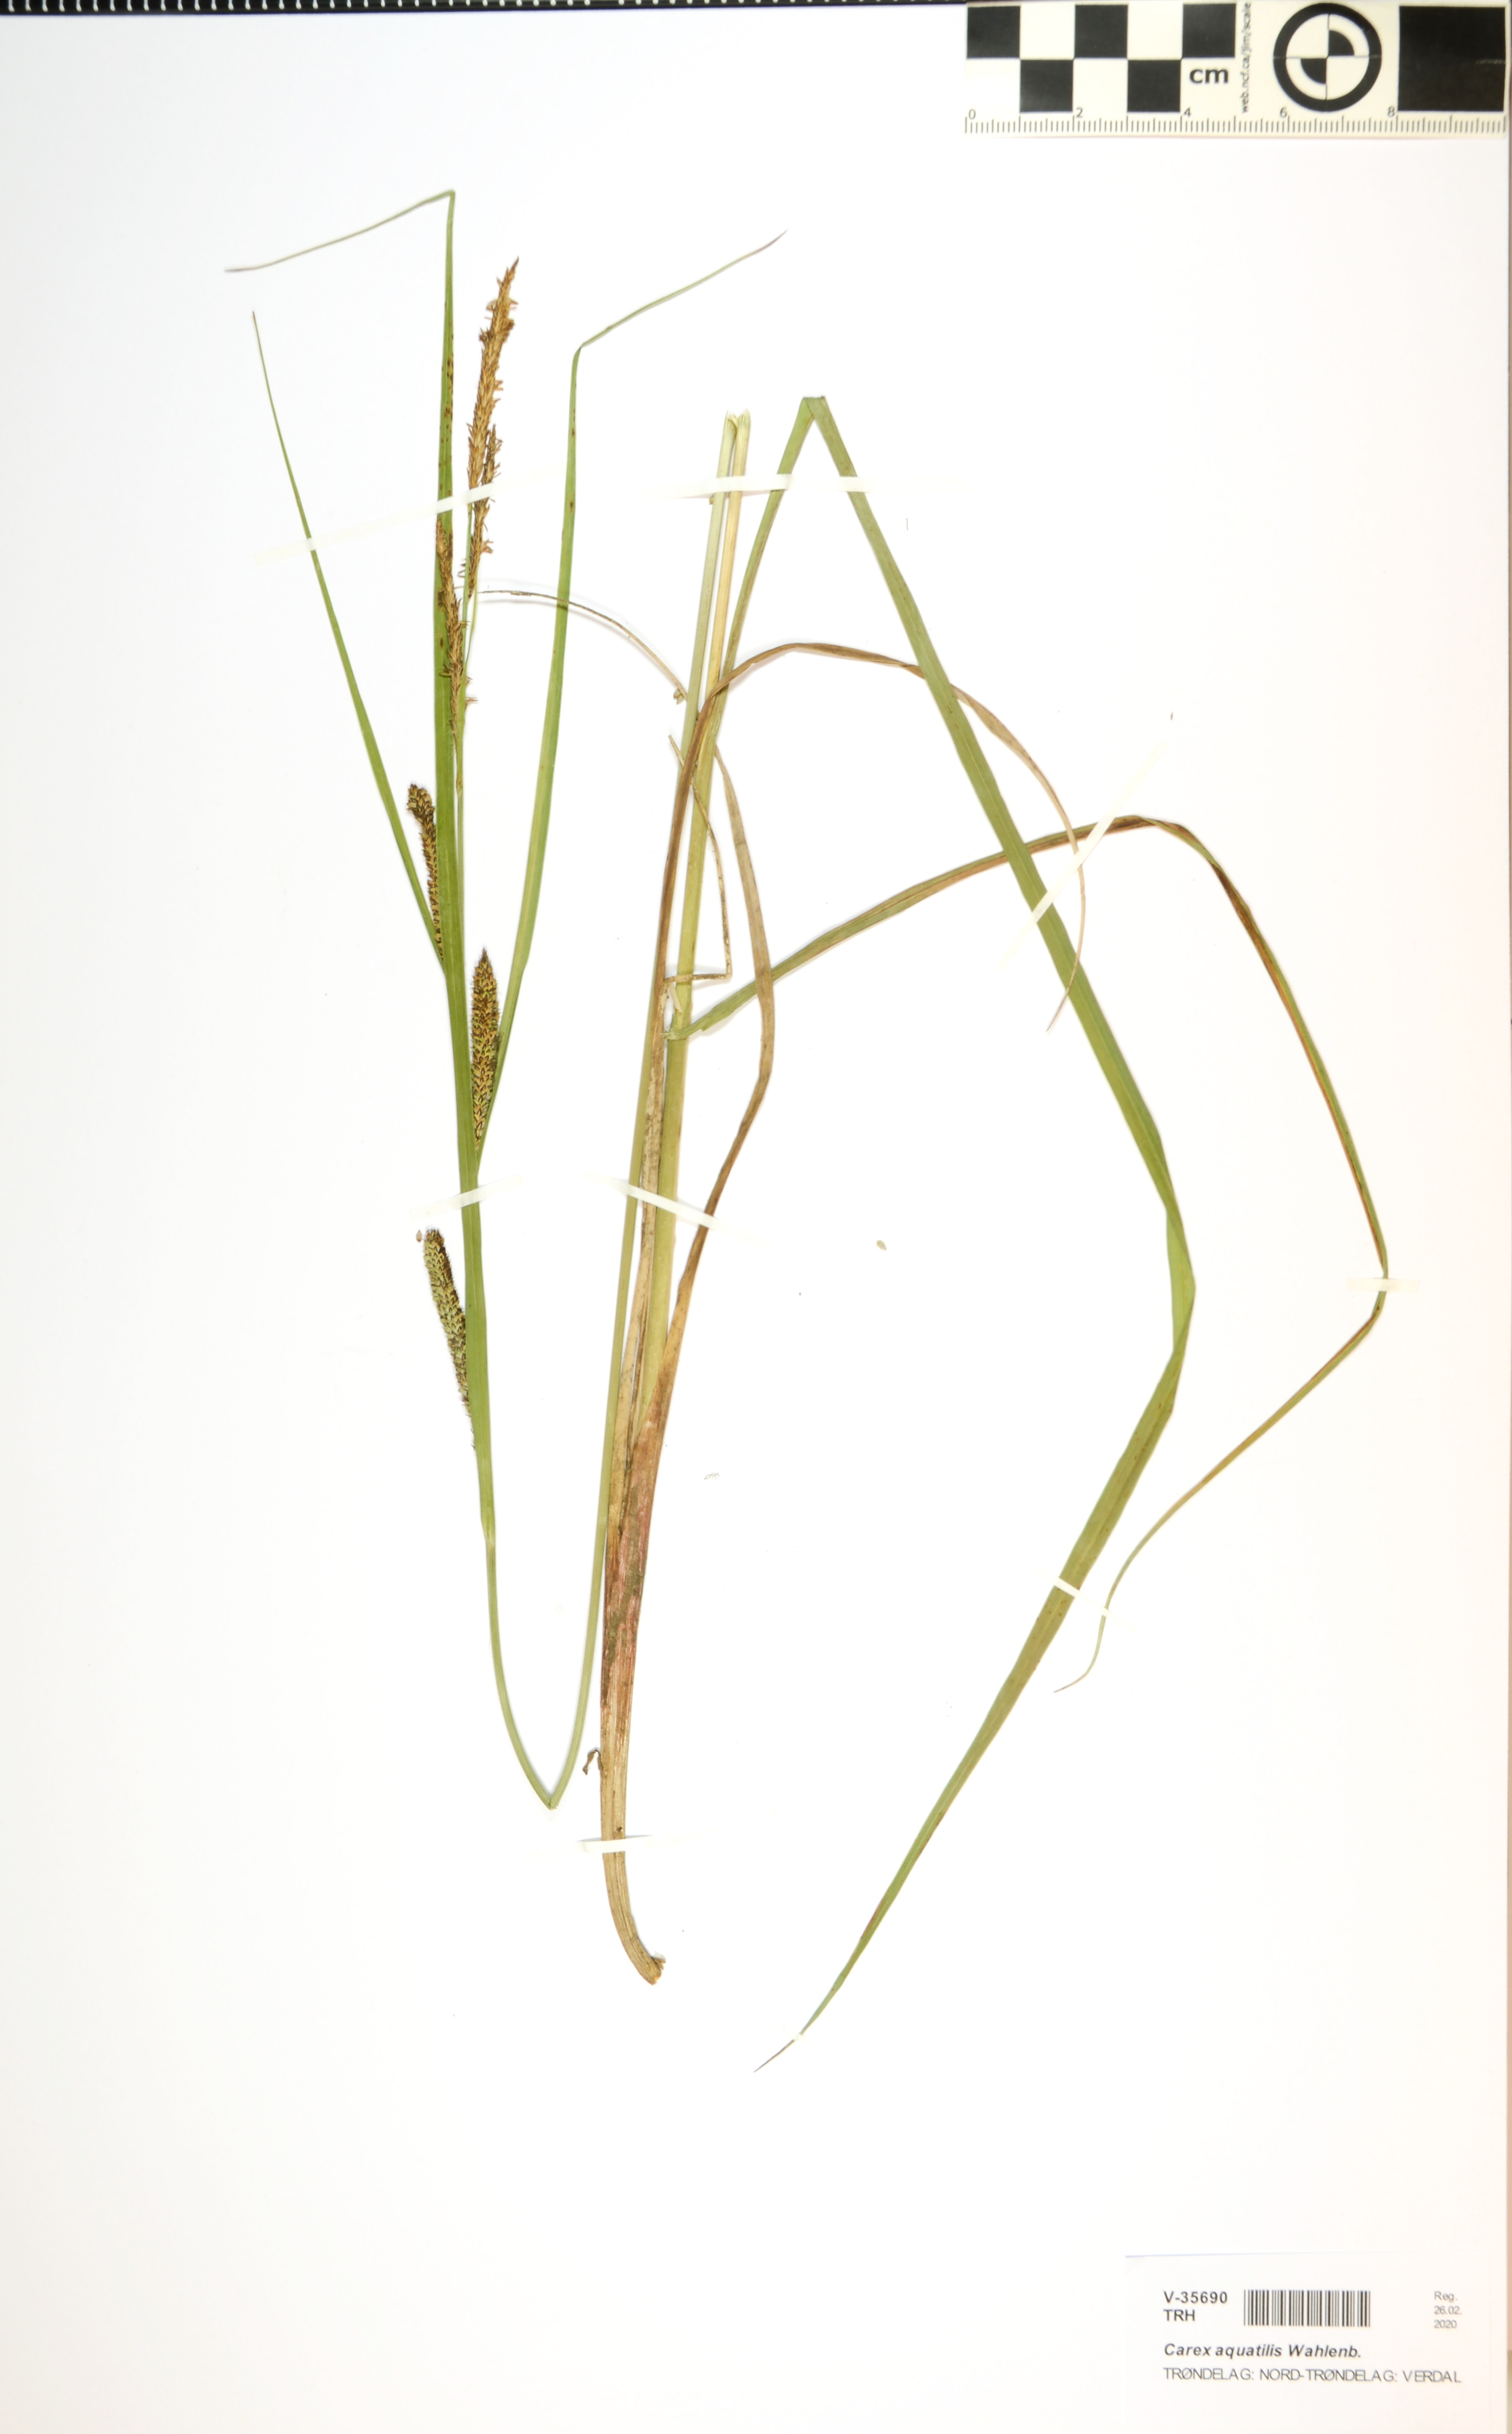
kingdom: Plantae
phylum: Tracheophyta
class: Liliopsida
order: Poales
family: Cyperaceae
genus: Carex
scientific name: Carex aquatilis
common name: Water sedge
